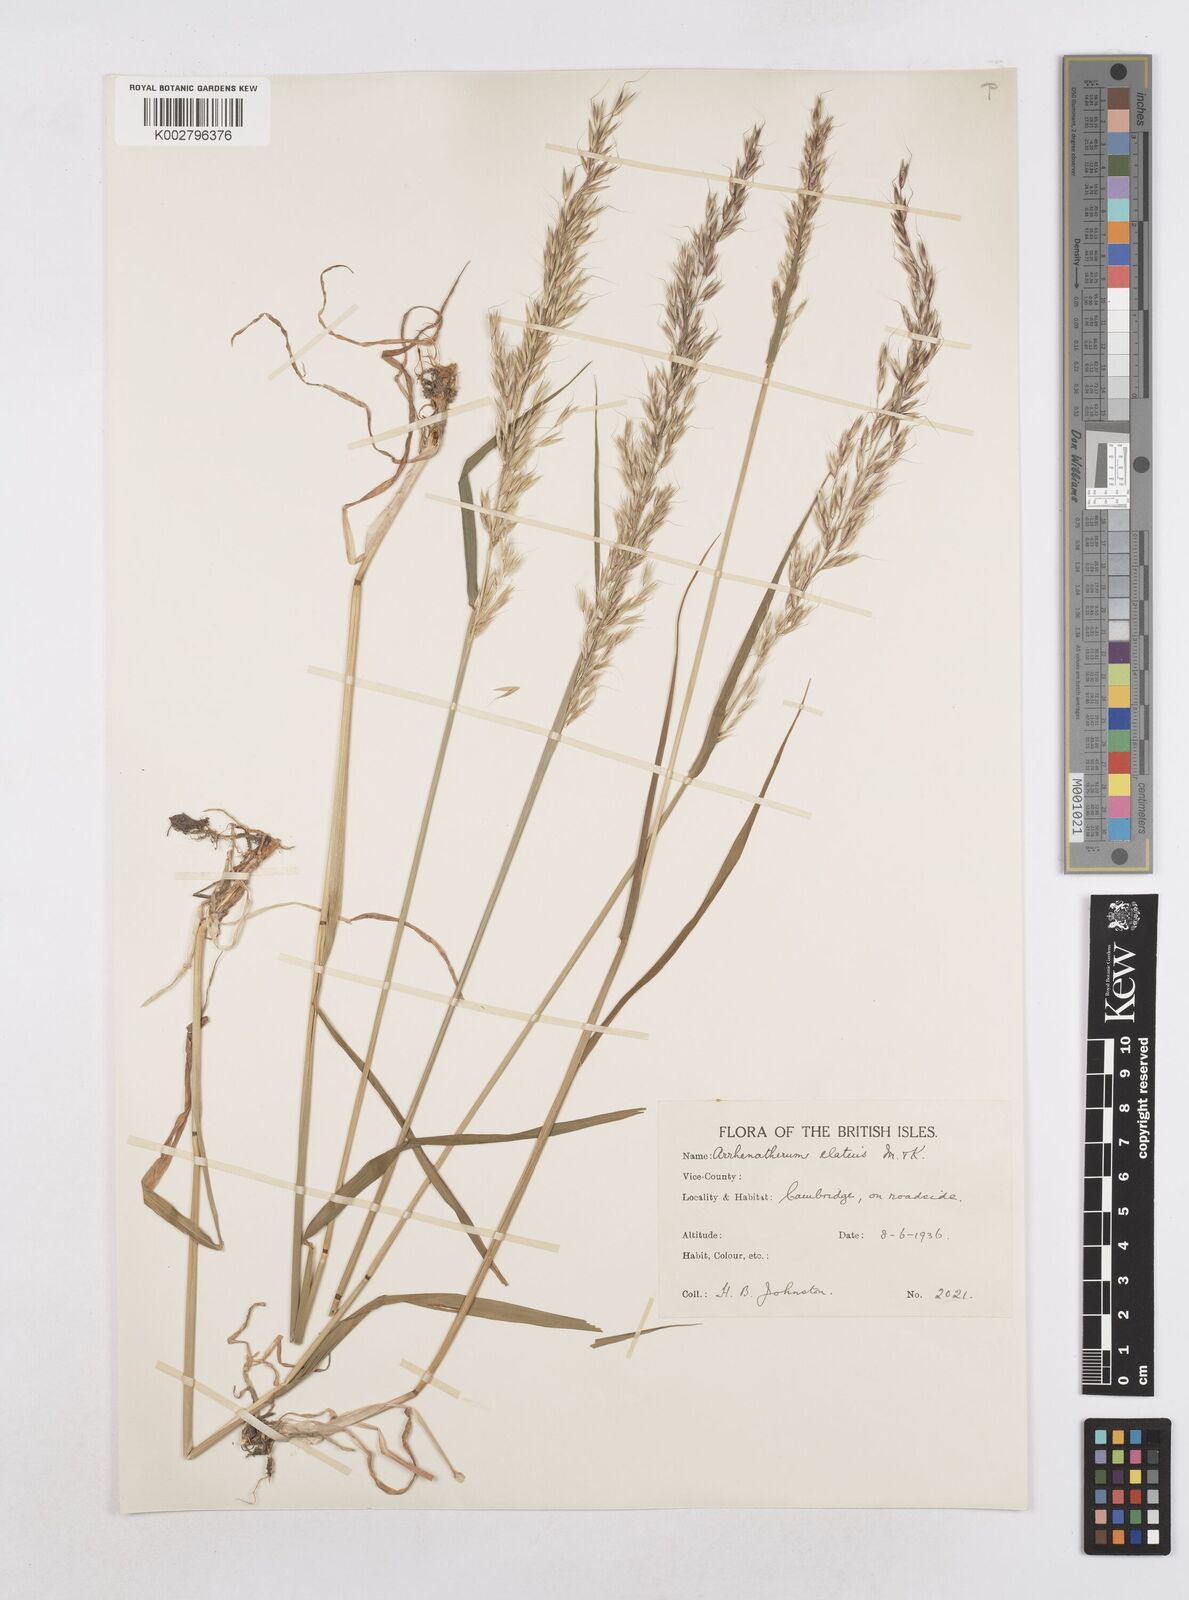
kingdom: Plantae
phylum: Tracheophyta
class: Liliopsida
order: Poales
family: Poaceae
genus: Arrhenatherum
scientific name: Arrhenatherum elatius
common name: Tall oatgrass
